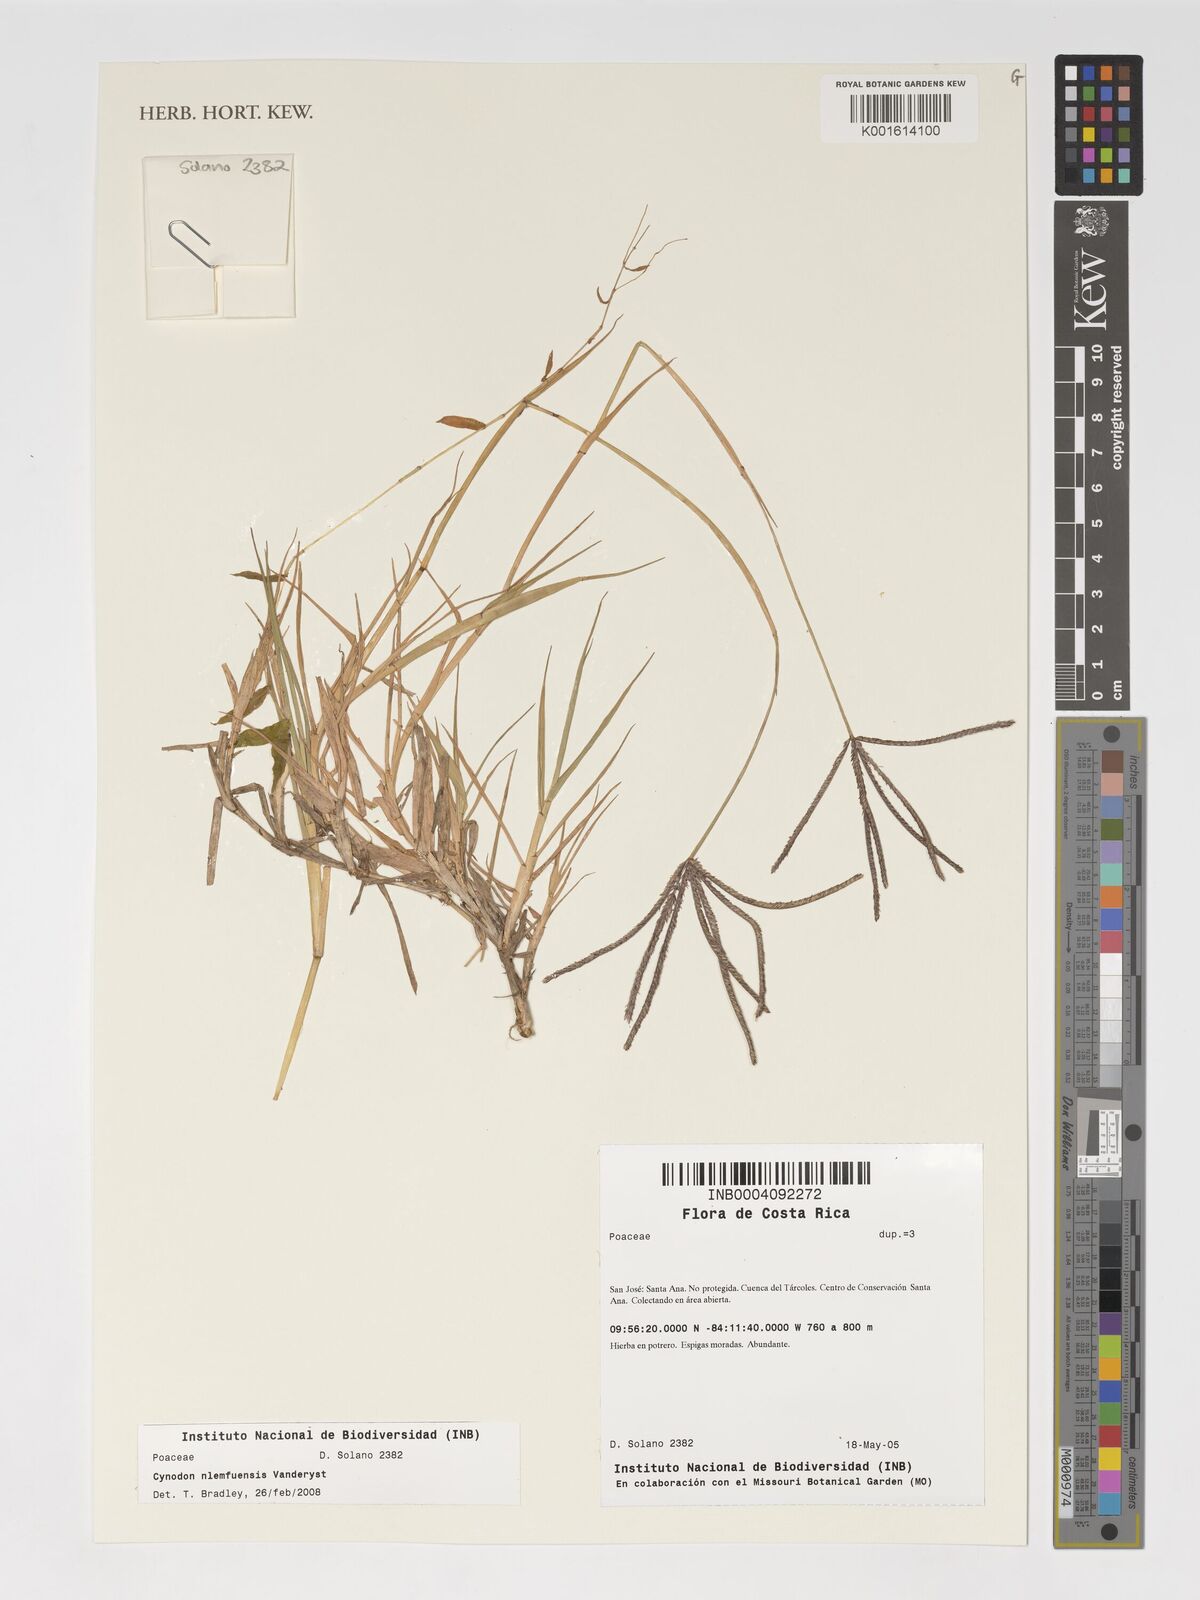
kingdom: Plantae
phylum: Tracheophyta
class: Liliopsida
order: Poales
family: Poaceae
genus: Cynodon
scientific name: Cynodon nlemfuensis
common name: African bermudagrass
